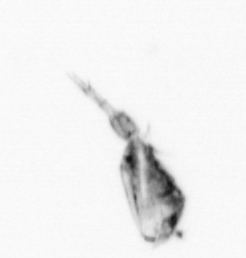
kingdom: Animalia
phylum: Arthropoda
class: Copepoda
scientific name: Copepoda
